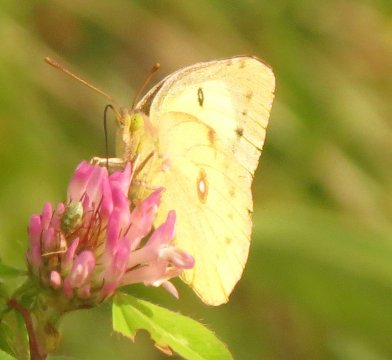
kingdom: Animalia
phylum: Arthropoda
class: Insecta
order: Lepidoptera
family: Pieridae
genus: Colias
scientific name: Colias interior
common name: Pink-edged Sulphur
